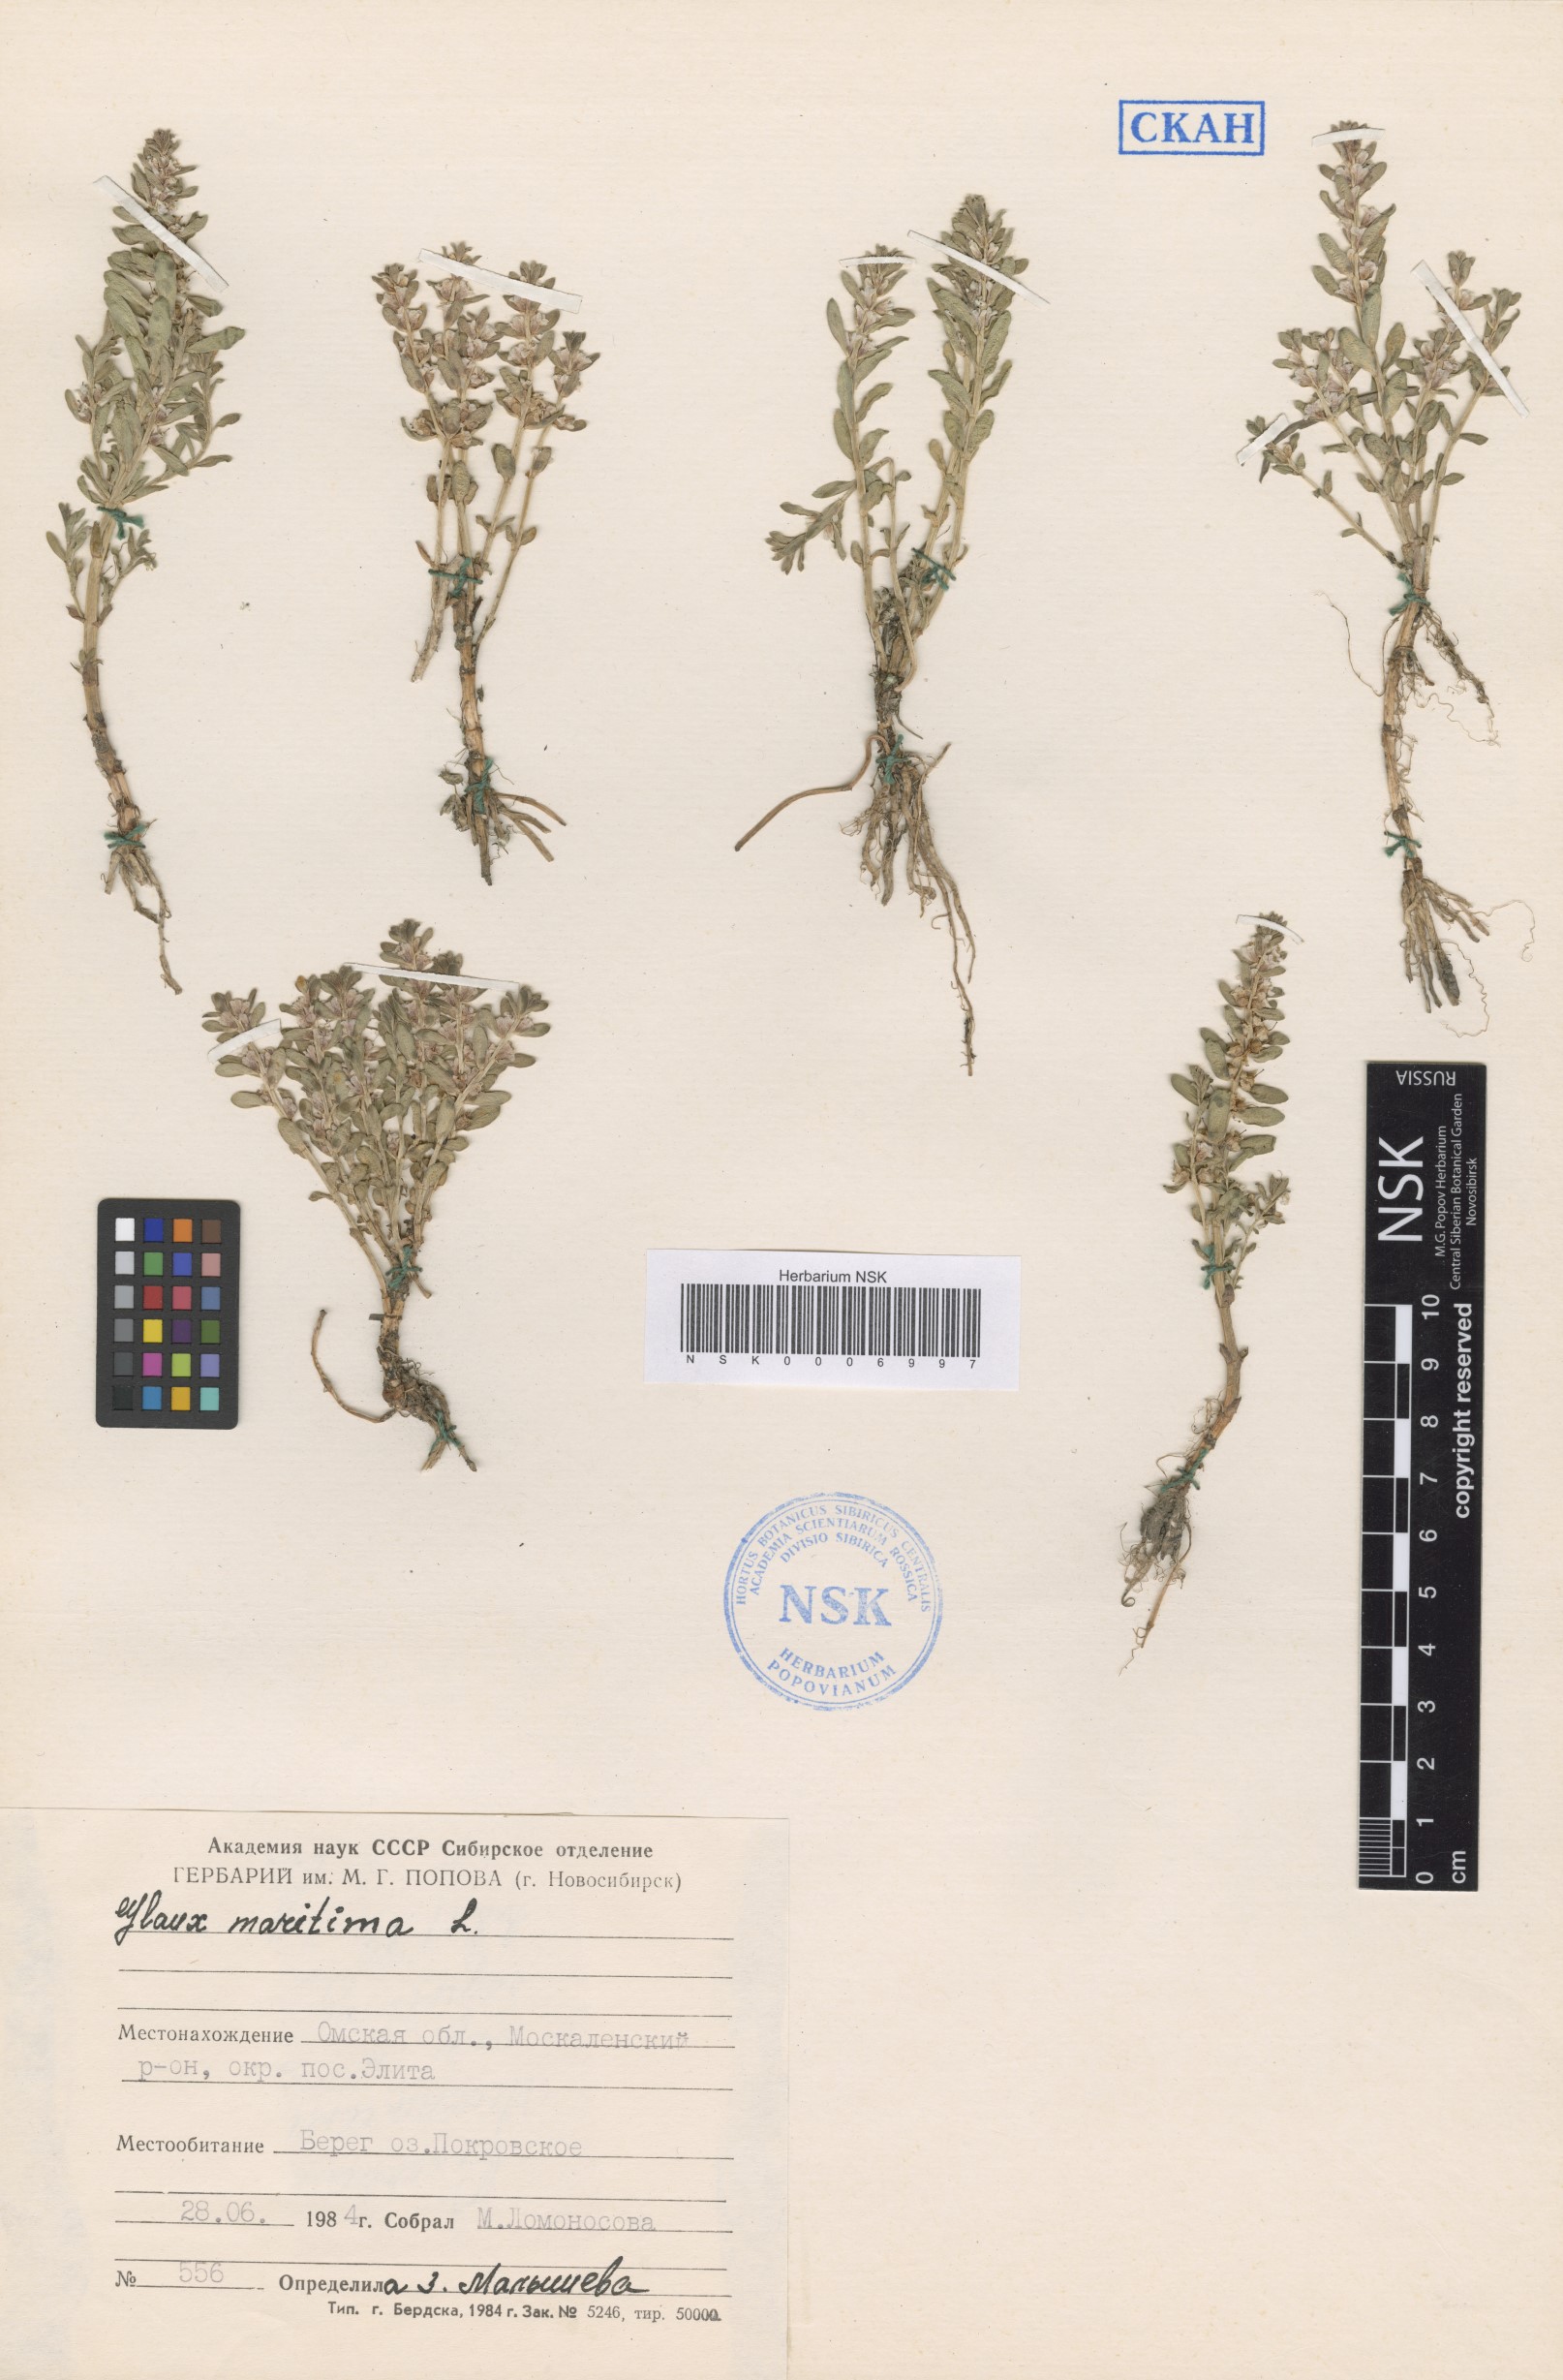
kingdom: Plantae
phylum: Tracheophyta
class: Magnoliopsida
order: Ericales
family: Primulaceae
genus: Lysimachia
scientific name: Lysimachia maritima
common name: Sea milkwort
